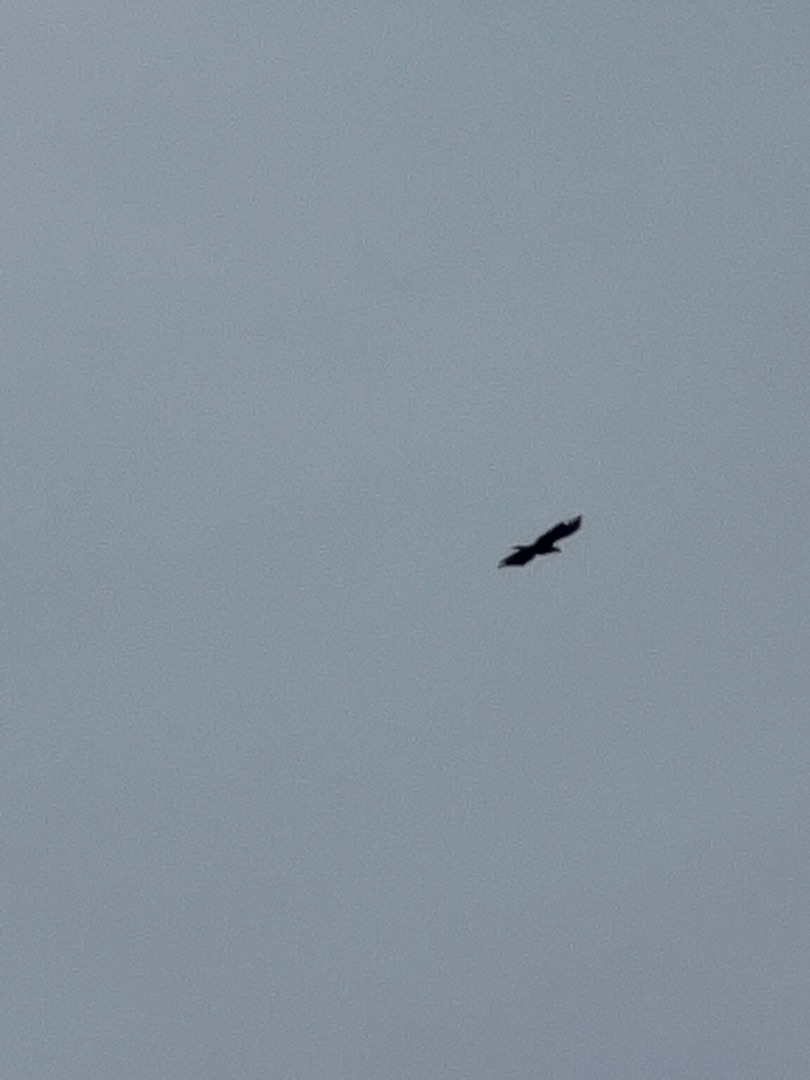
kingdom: Animalia
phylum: Chordata
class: Aves
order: Accipitriformes
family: Accipitridae
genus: Haliaeetus
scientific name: Haliaeetus albicilla
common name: Havørn
